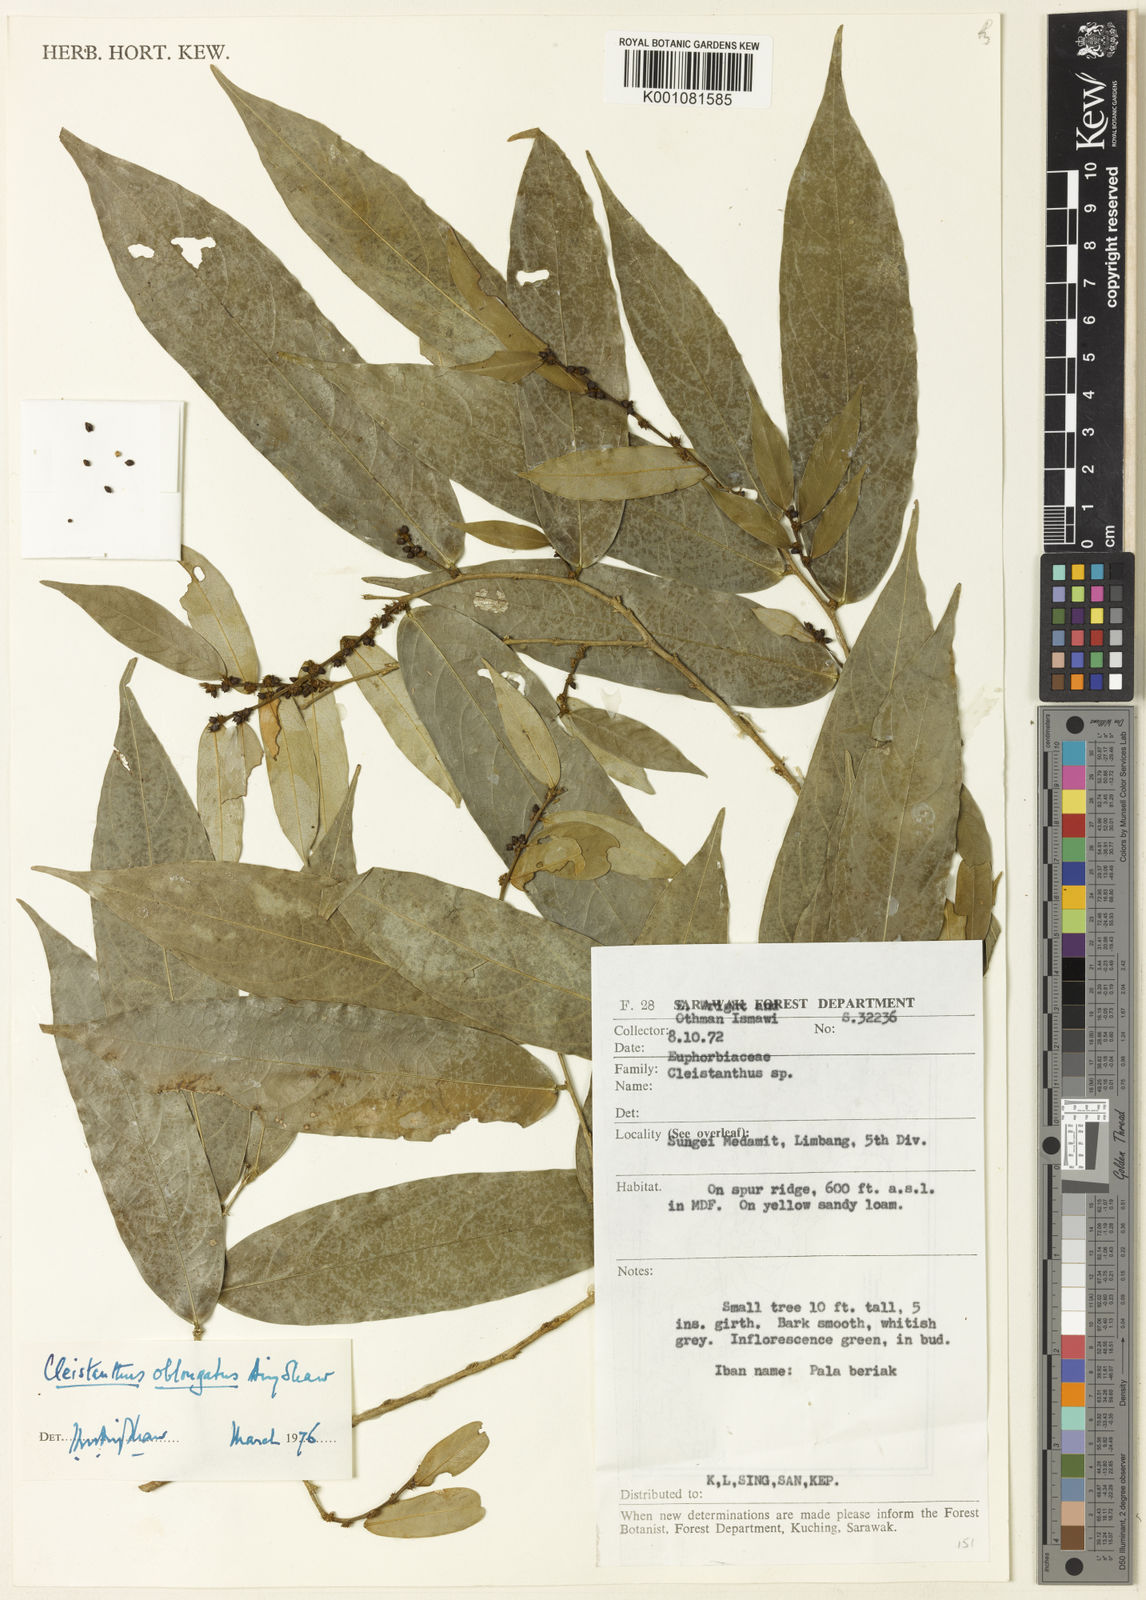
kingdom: Plantae
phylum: Tracheophyta
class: Magnoliopsida
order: Malpighiales
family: Phyllanthaceae
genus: Cleistanthus
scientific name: Cleistanthus oblongatus
